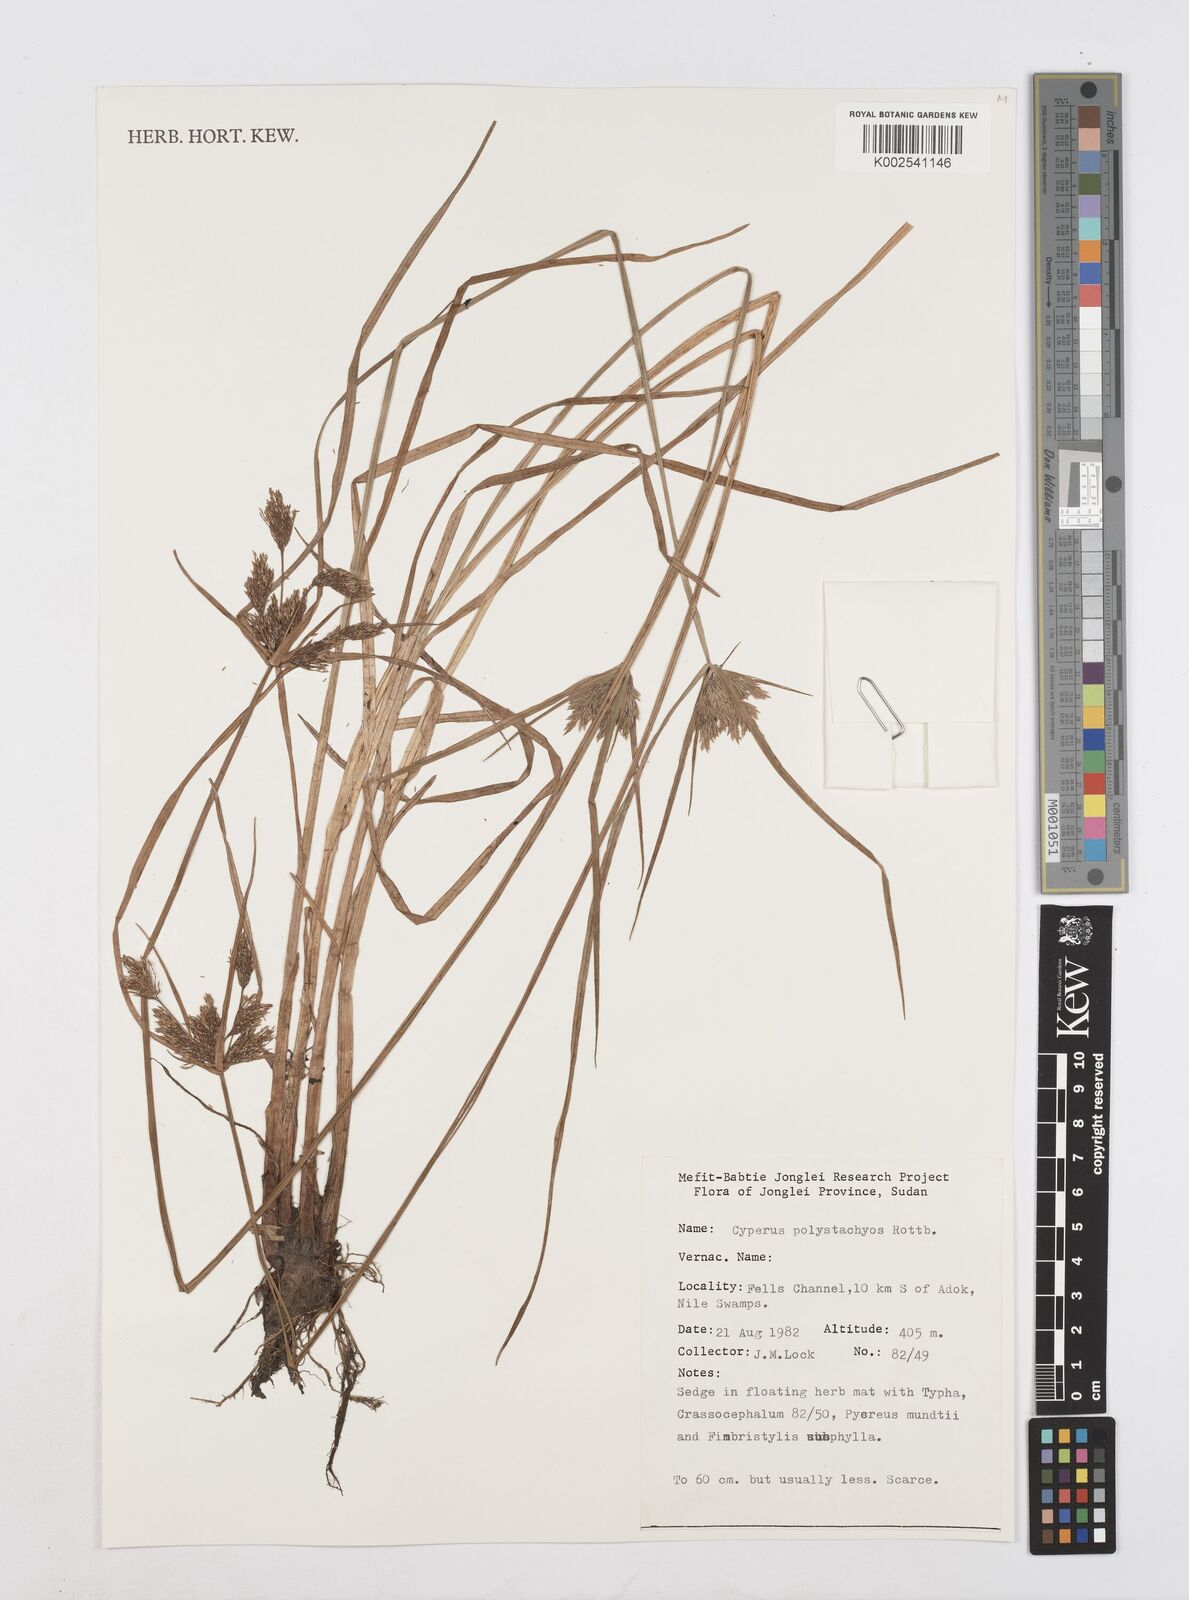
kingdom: Plantae
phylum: Tracheophyta
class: Liliopsida
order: Poales
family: Cyperaceae
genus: Cyperus
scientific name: Cyperus polystachyos
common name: Bunchy flat sedge
